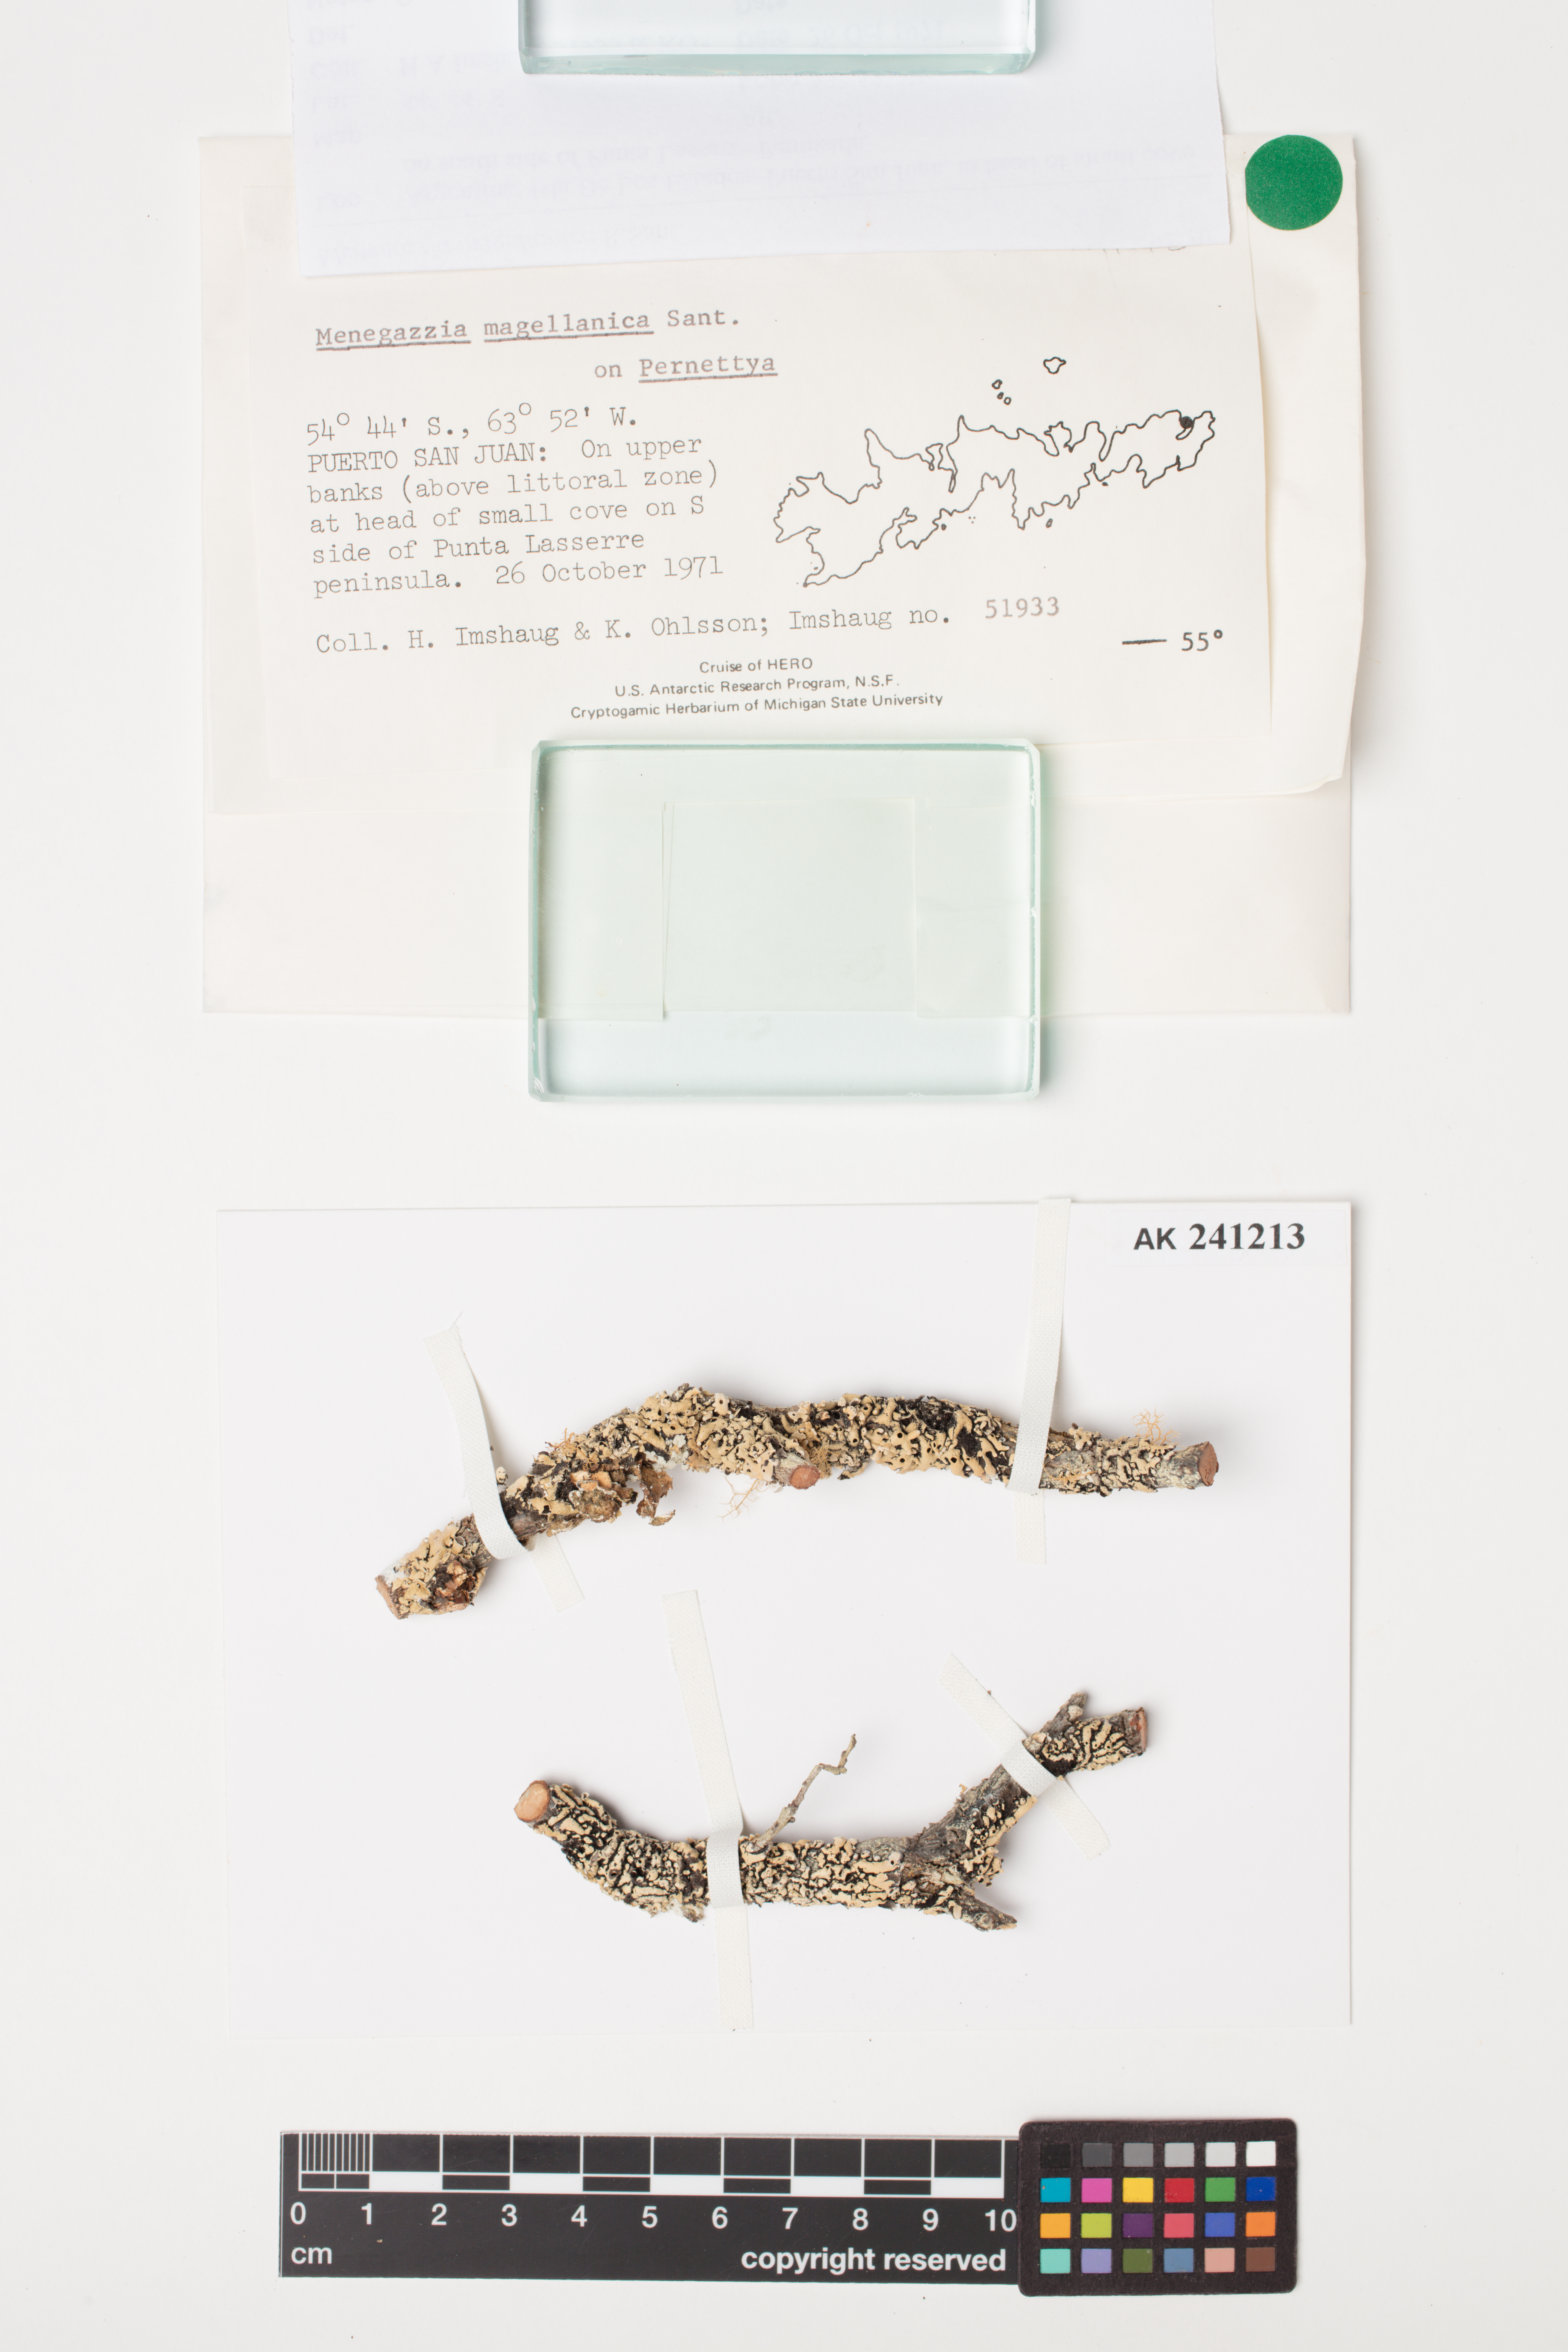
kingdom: Fungi
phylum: Ascomycota
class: Lecanoromycetes
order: Lecanorales
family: Parmeliaceae
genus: Menegazzia
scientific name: Menegazzia subpertusa
